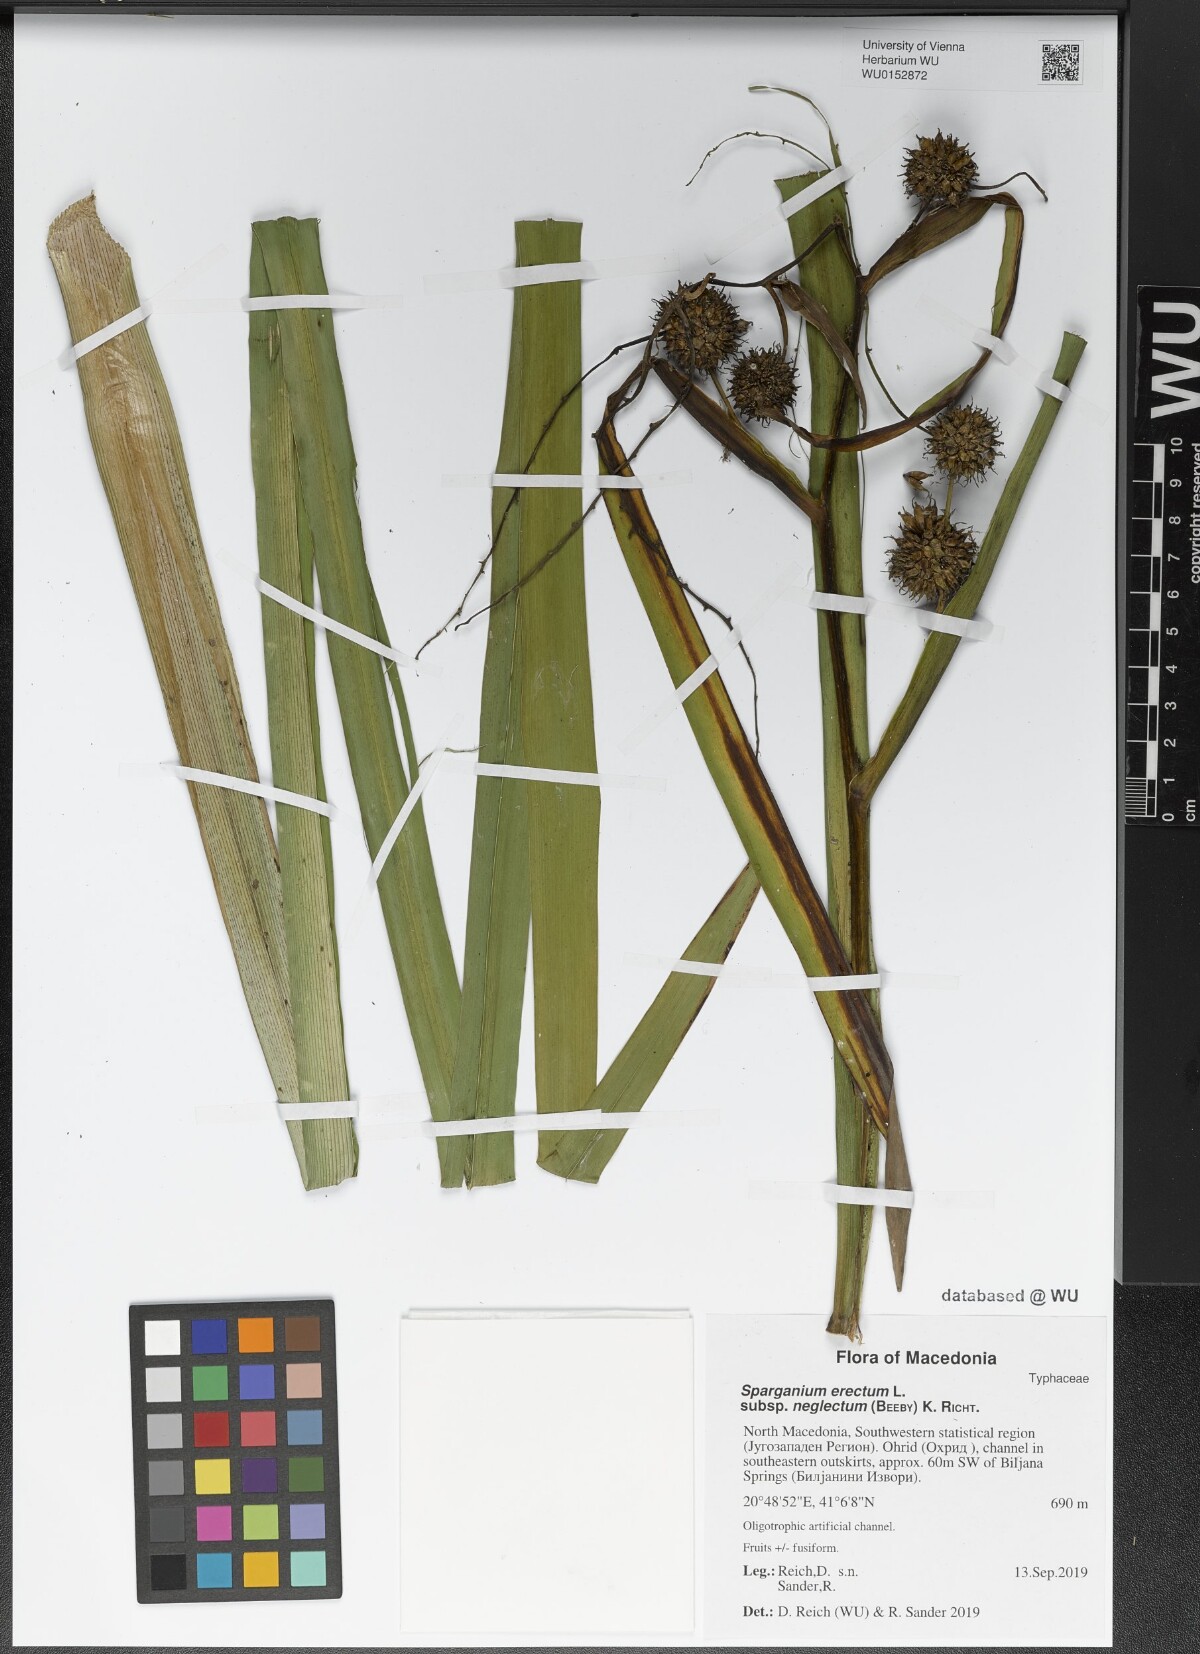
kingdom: Plantae
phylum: Tracheophyta
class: Liliopsida
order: Poales
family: Typhaceae
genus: Sparganium
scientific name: Sparganium erectum
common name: Branched bur-reed
